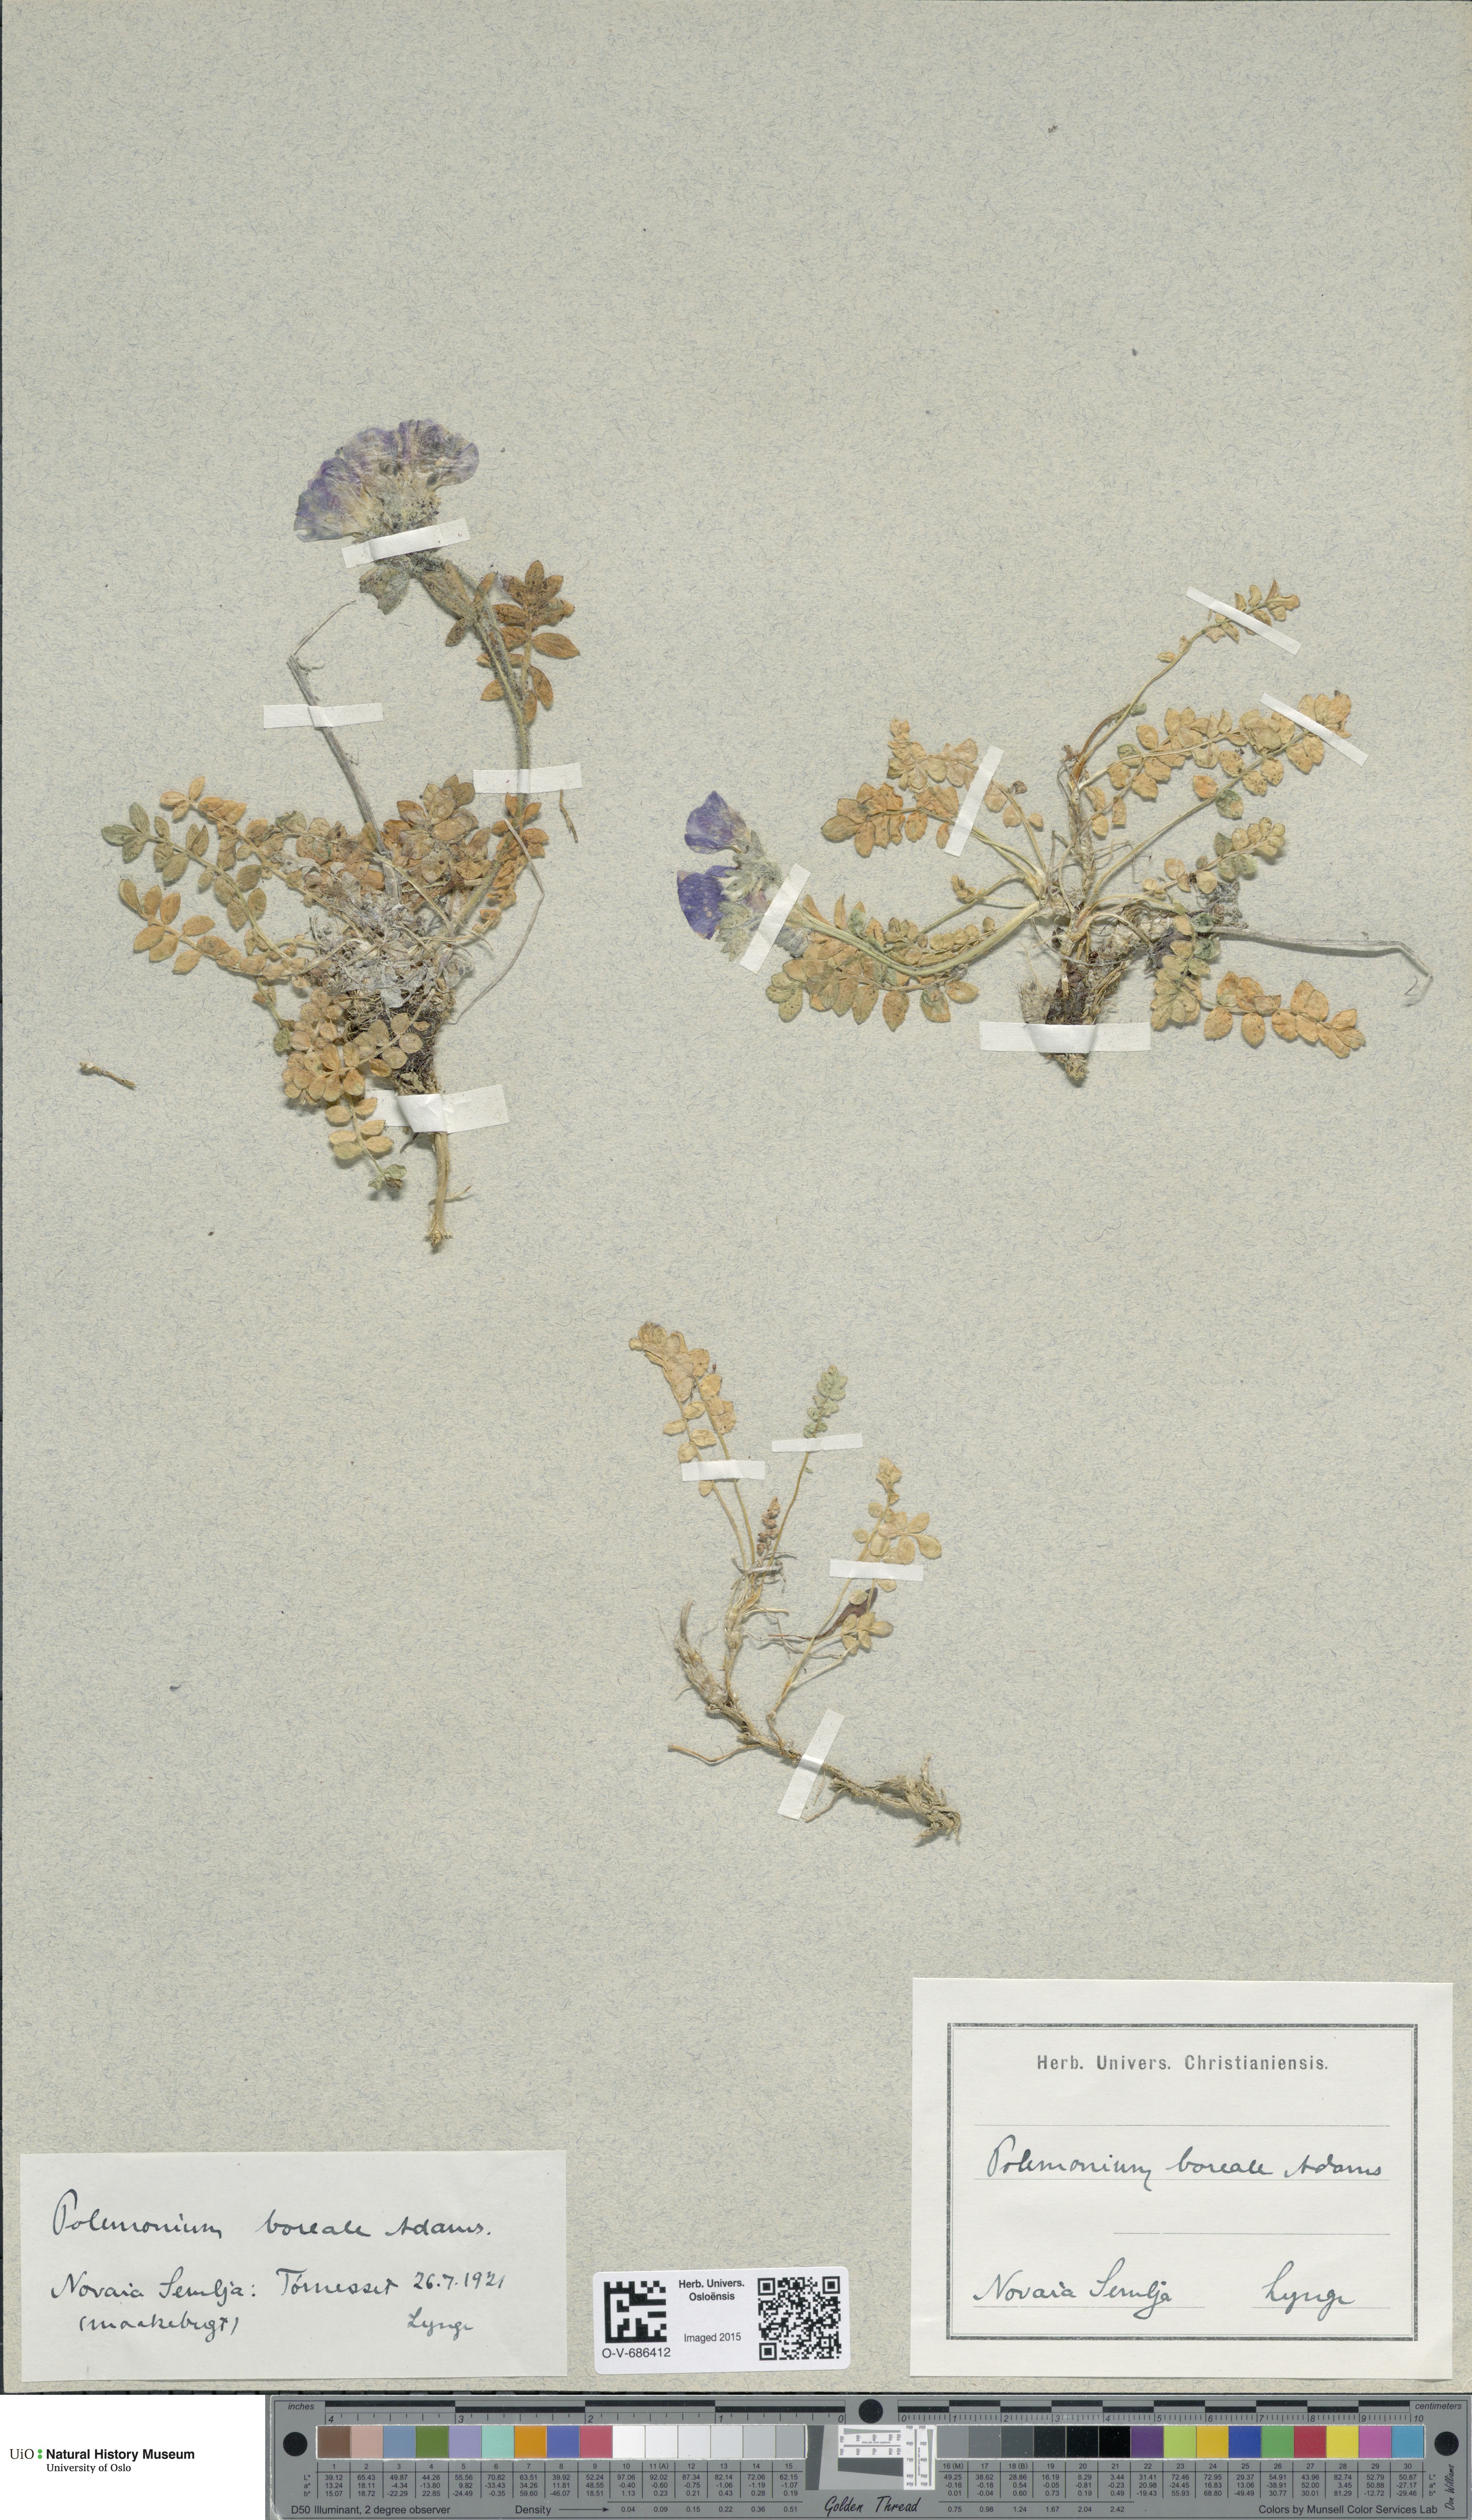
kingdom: Plantae
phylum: Tracheophyta
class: Magnoliopsida
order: Ericales
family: Polemoniaceae
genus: Polemonium
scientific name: Polemonium boreale
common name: Boreal jacob's-ladder
